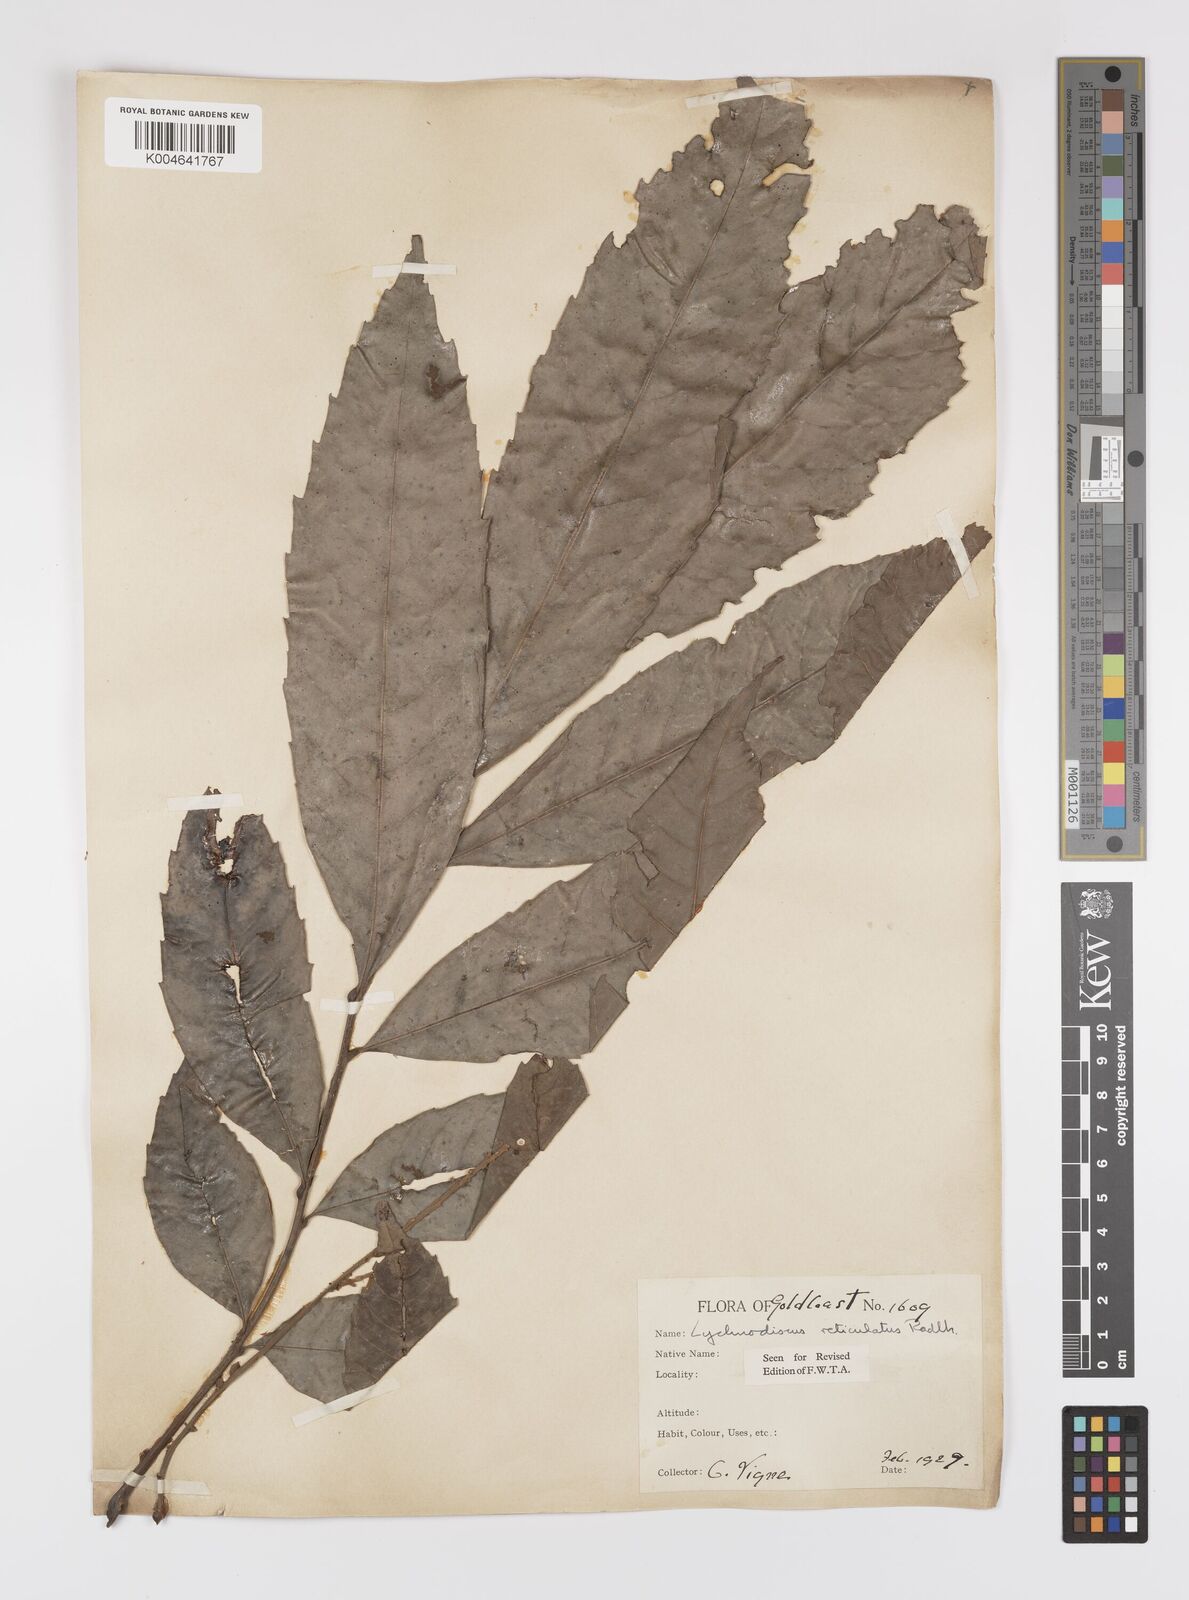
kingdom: Plantae
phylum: Tracheophyta
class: Magnoliopsida
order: Sapindales
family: Sapindaceae
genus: Lychnodiscus
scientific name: Lychnodiscus reticulatus
